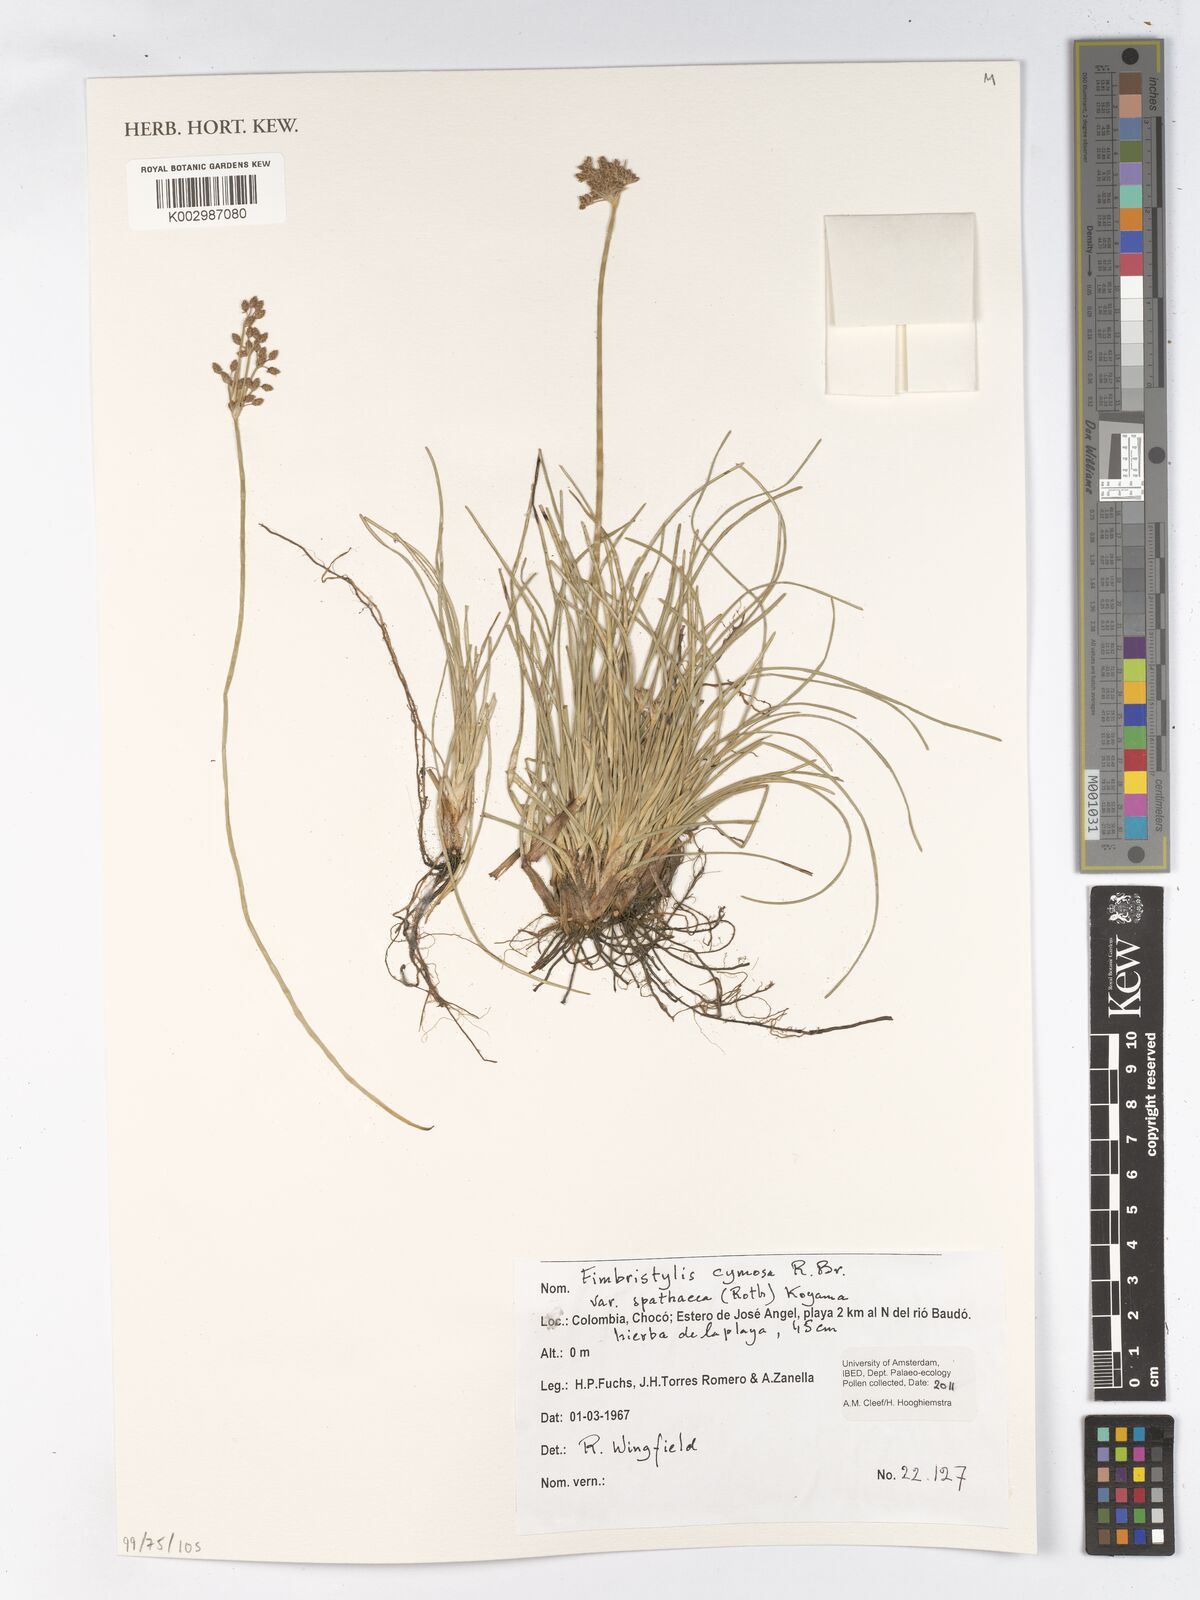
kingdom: Plantae
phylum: Tracheophyta
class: Liliopsida
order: Poales
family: Cyperaceae
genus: Fimbristylis
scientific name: Fimbristylis cymosa
